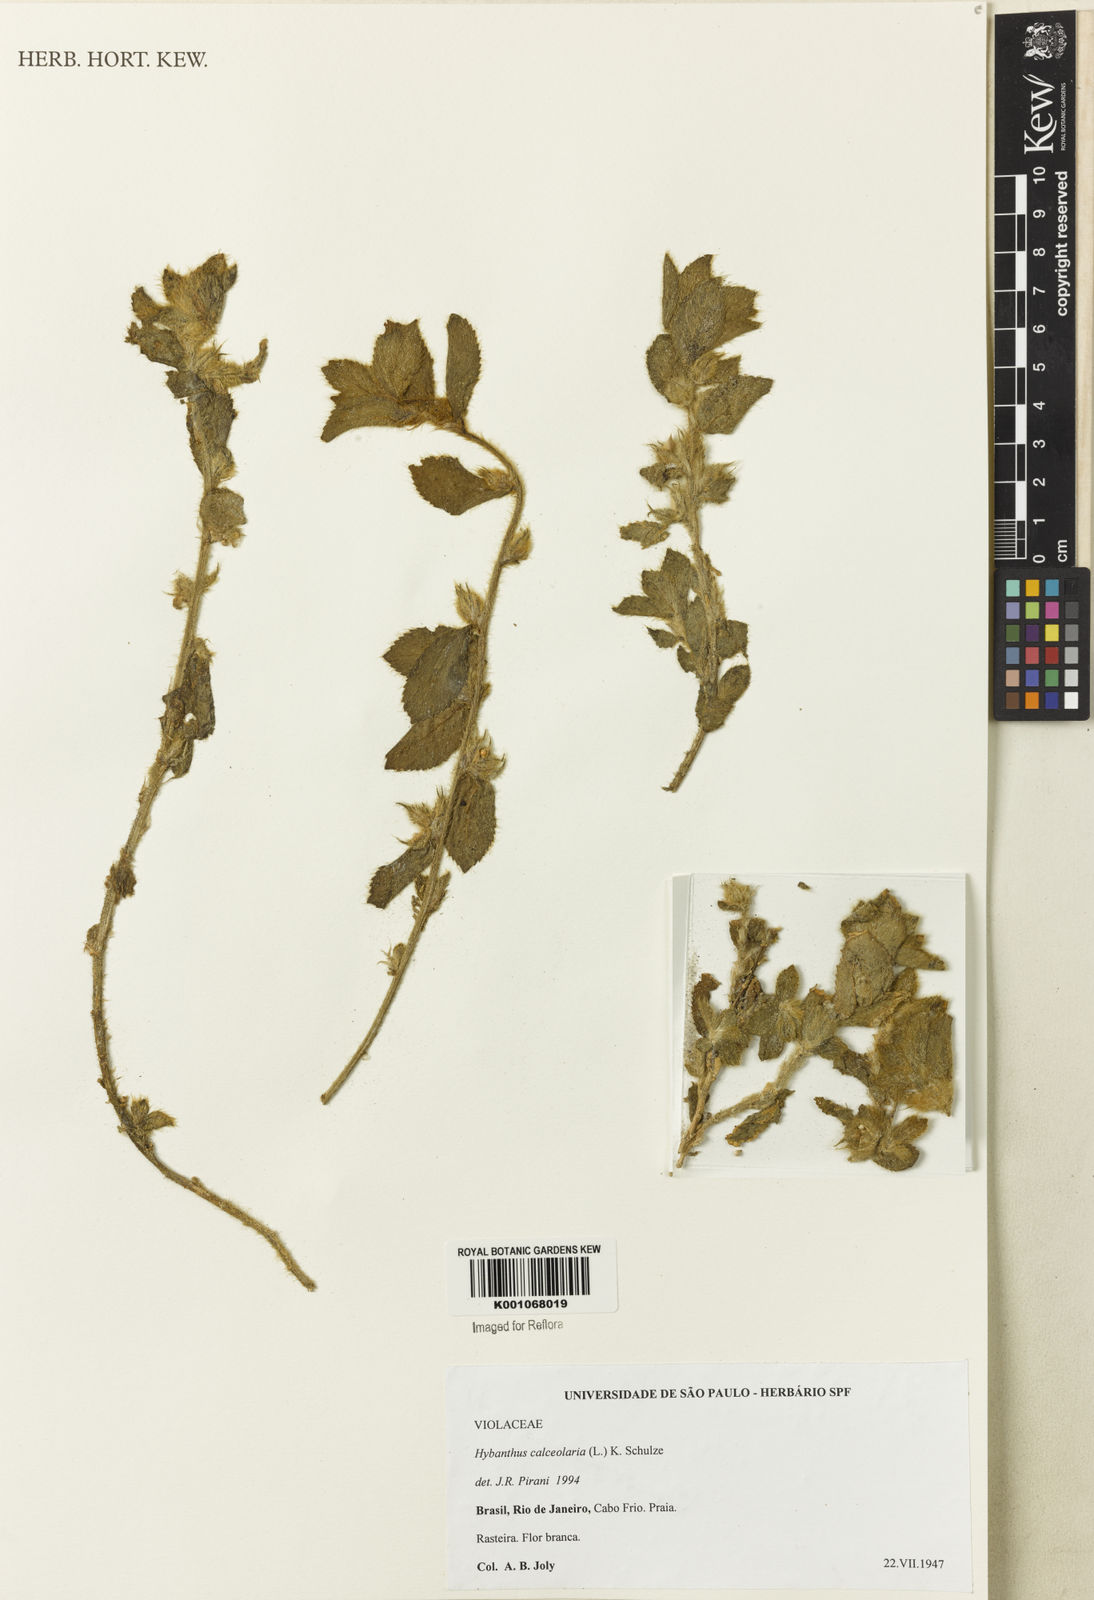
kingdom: Plantae
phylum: Tracheophyta
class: Magnoliopsida
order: Malpighiales
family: Violaceae
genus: Hybanthus
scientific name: Hybanthus
